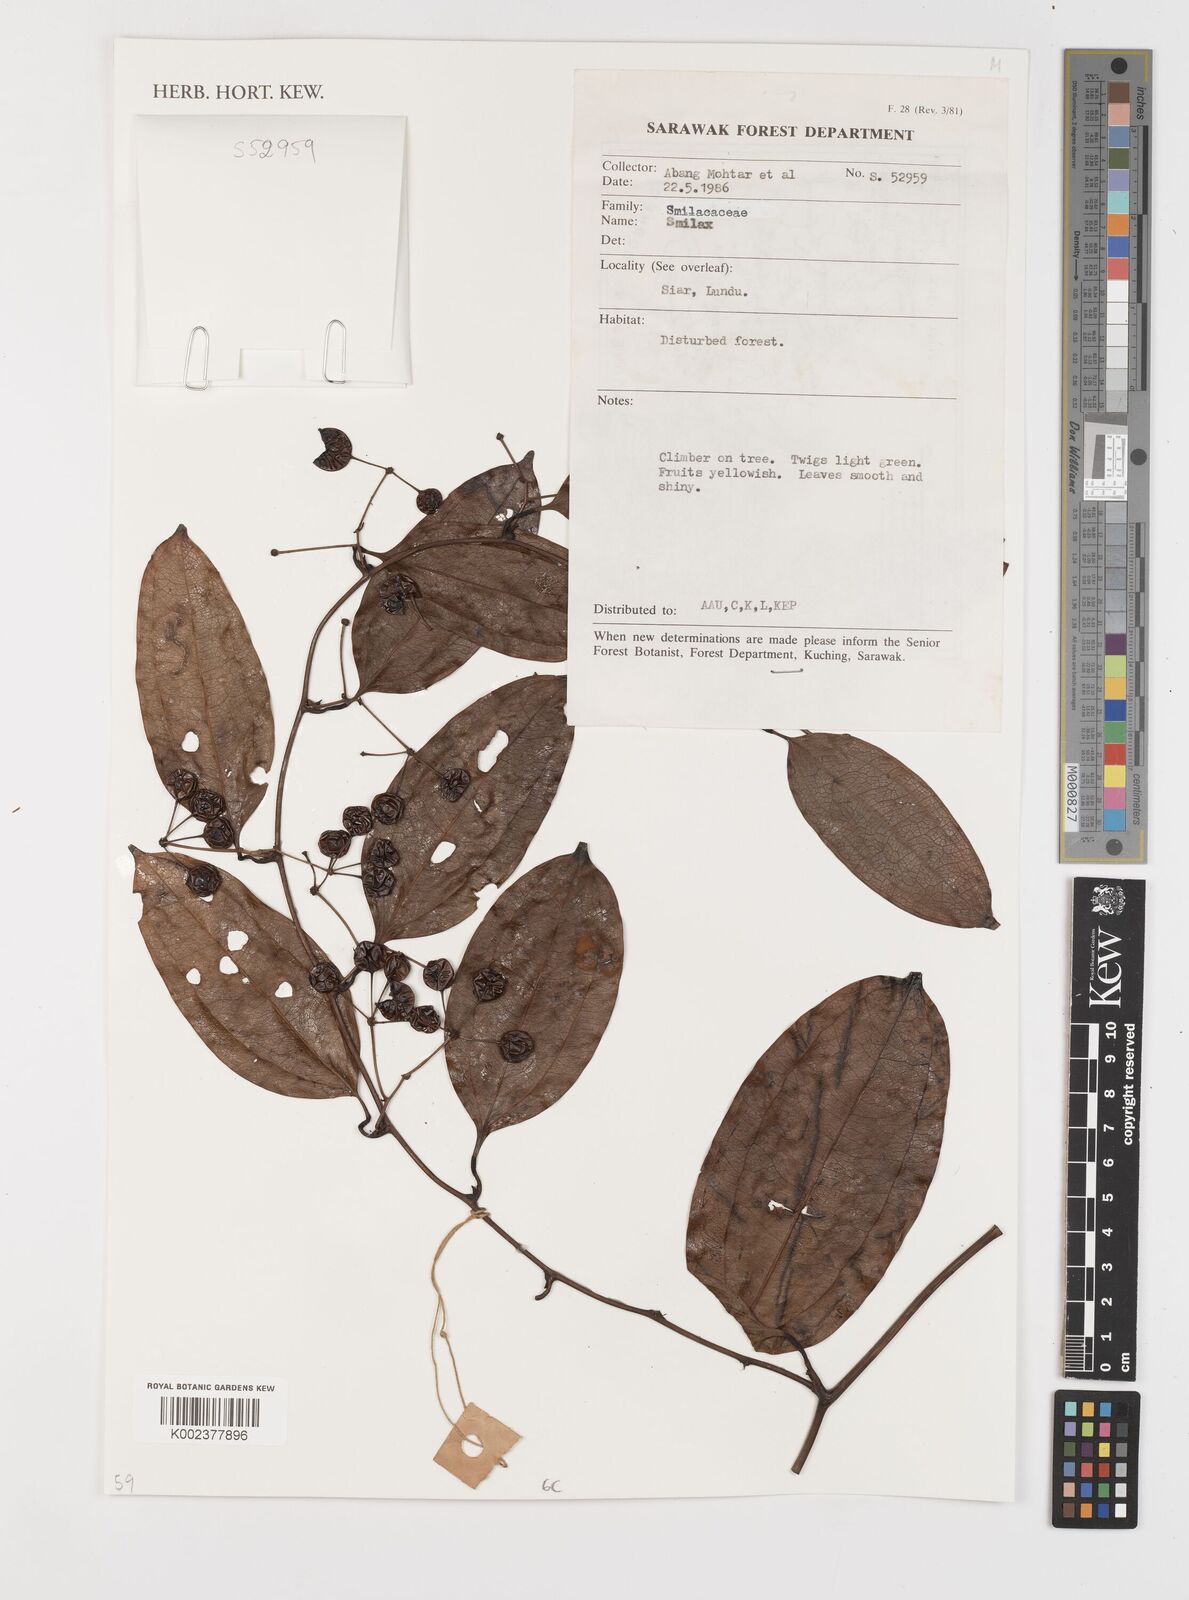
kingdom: Plantae
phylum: Tracheophyta
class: Liliopsida
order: Liliales
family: Smilacaceae
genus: Smilax
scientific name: Smilax
